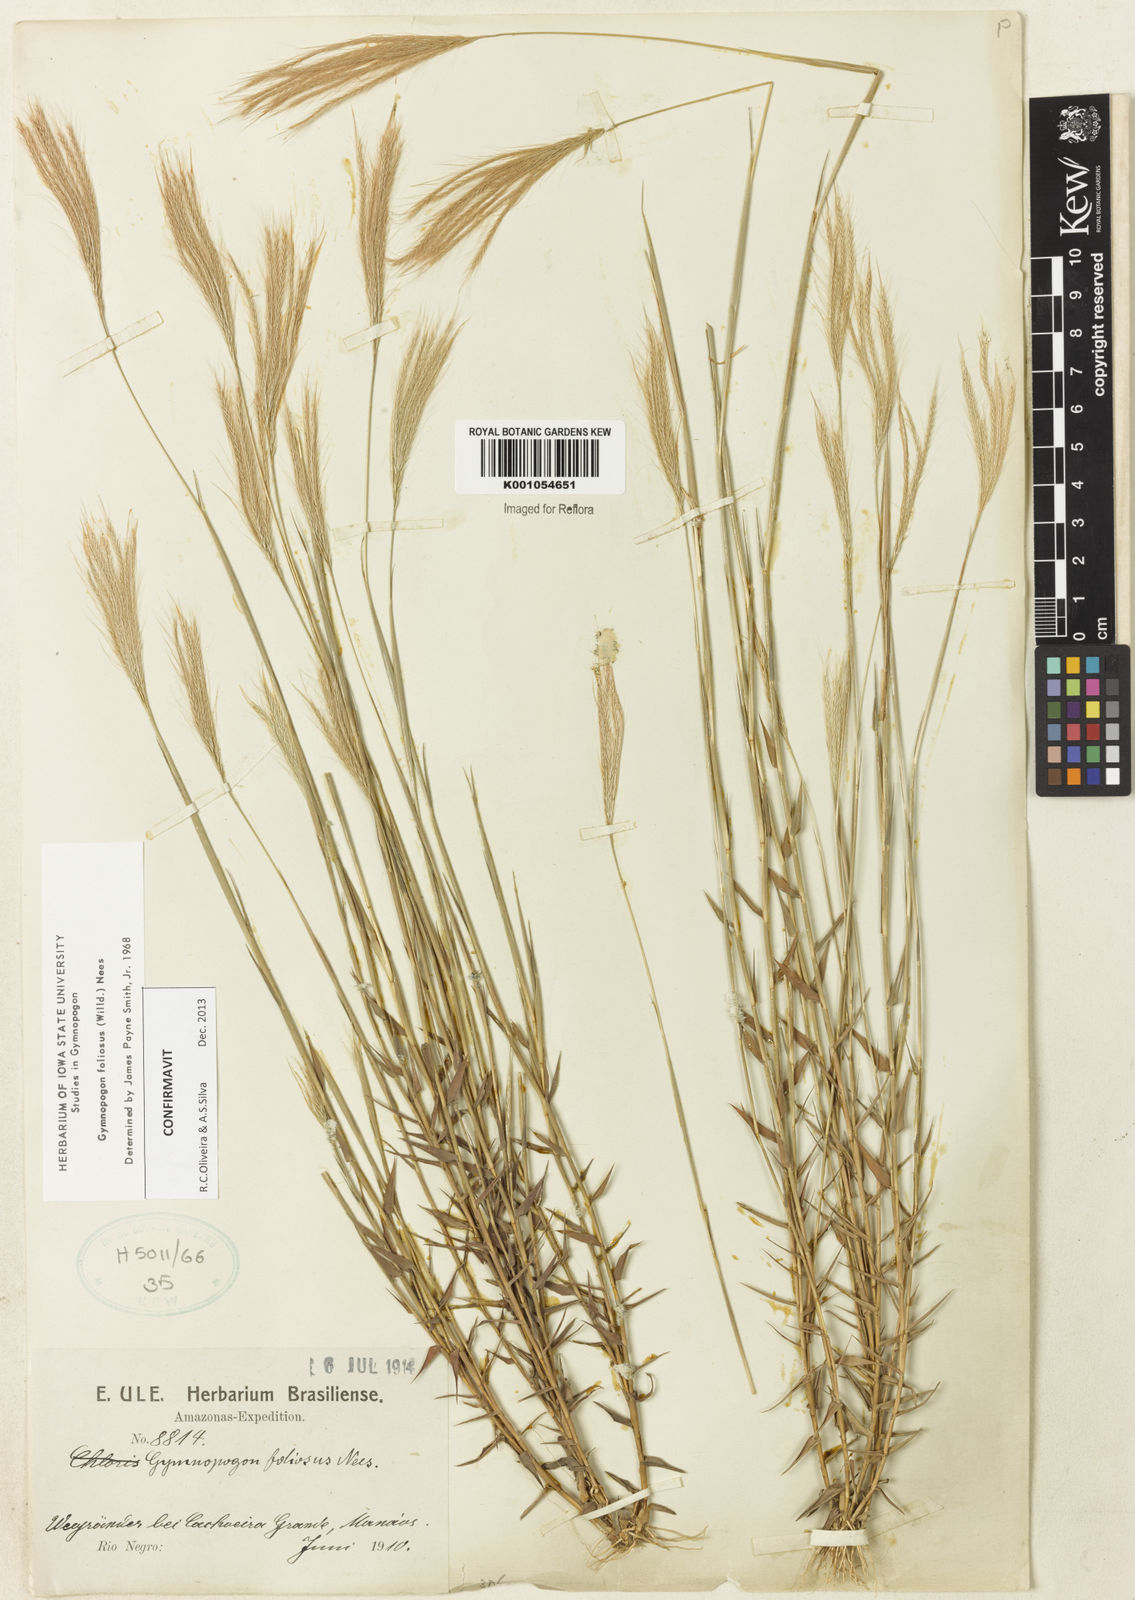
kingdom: Plantae
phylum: Tracheophyta
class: Liliopsida
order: Poales
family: Poaceae
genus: Gymnopogon
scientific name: Gymnopogon foliosus
